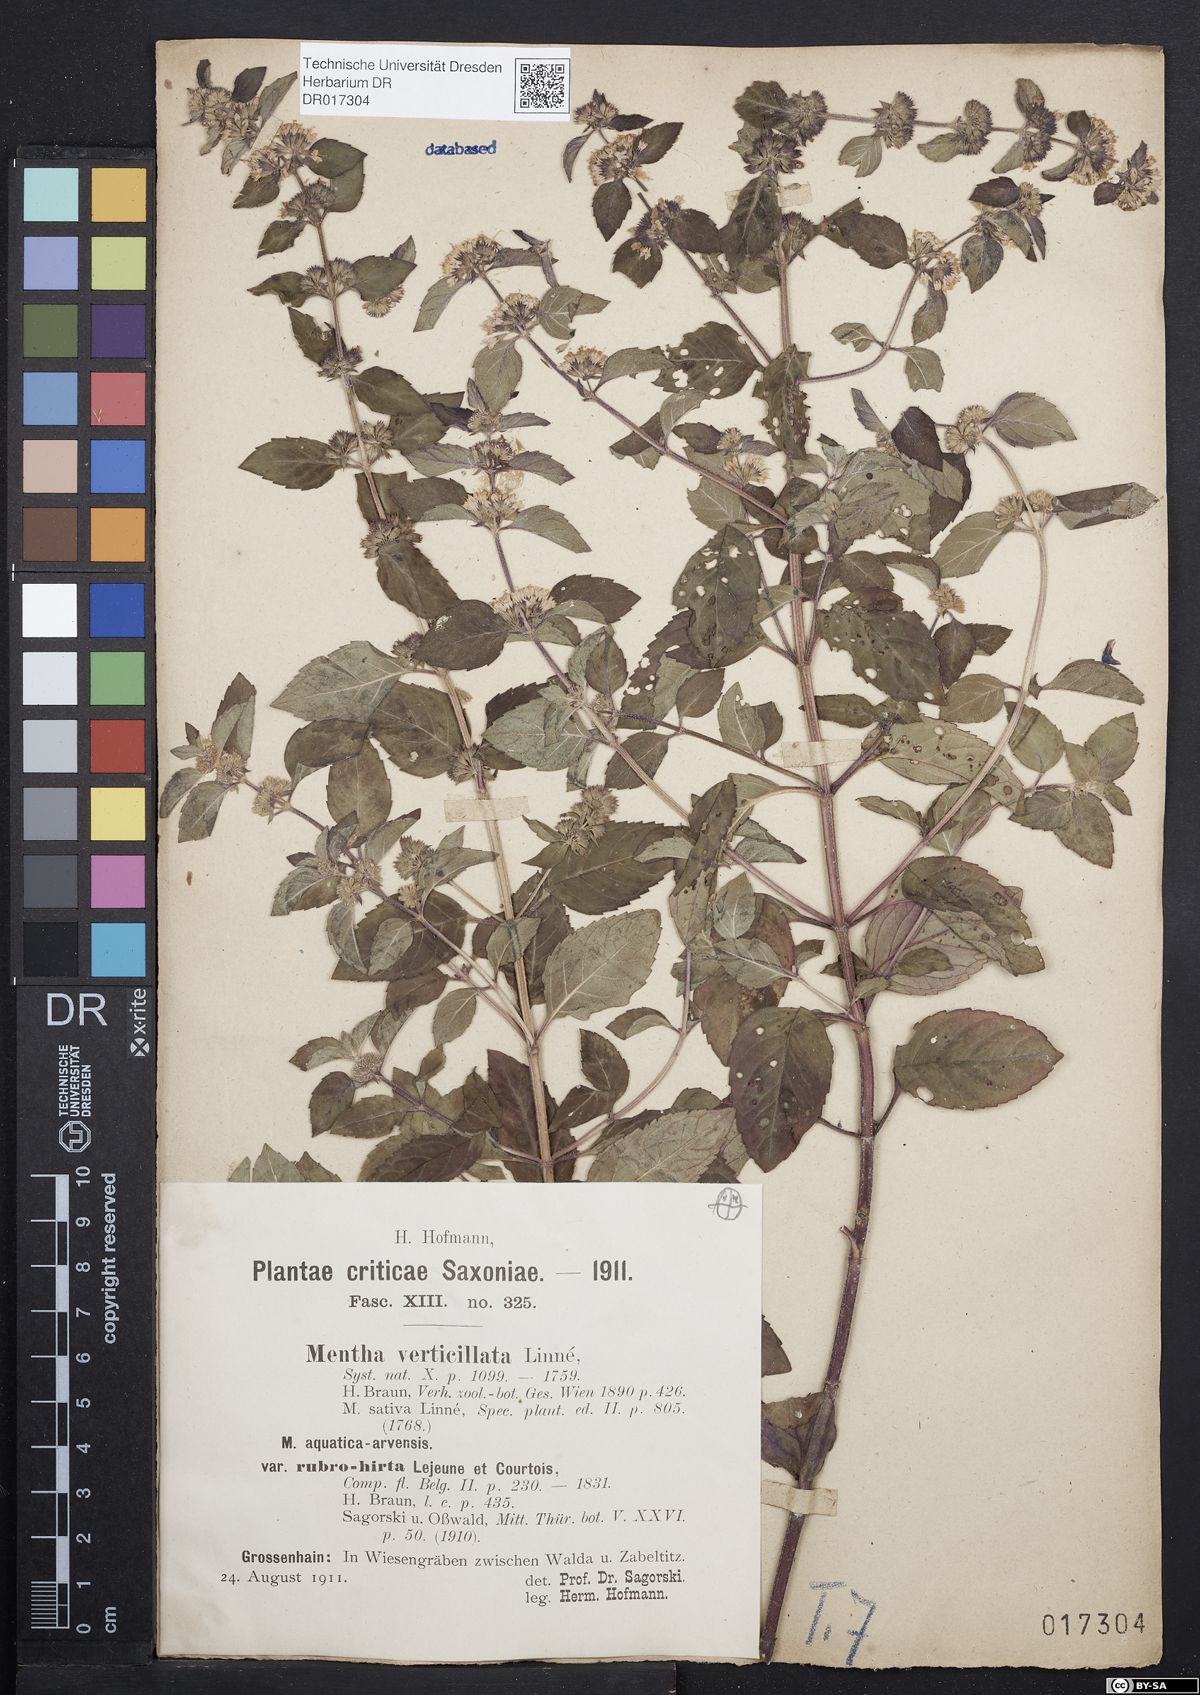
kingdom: Plantae
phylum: Tracheophyta
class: Magnoliopsida
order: Lamiales
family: Lamiaceae
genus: Mentha
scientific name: Mentha verticillata
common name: Mint
